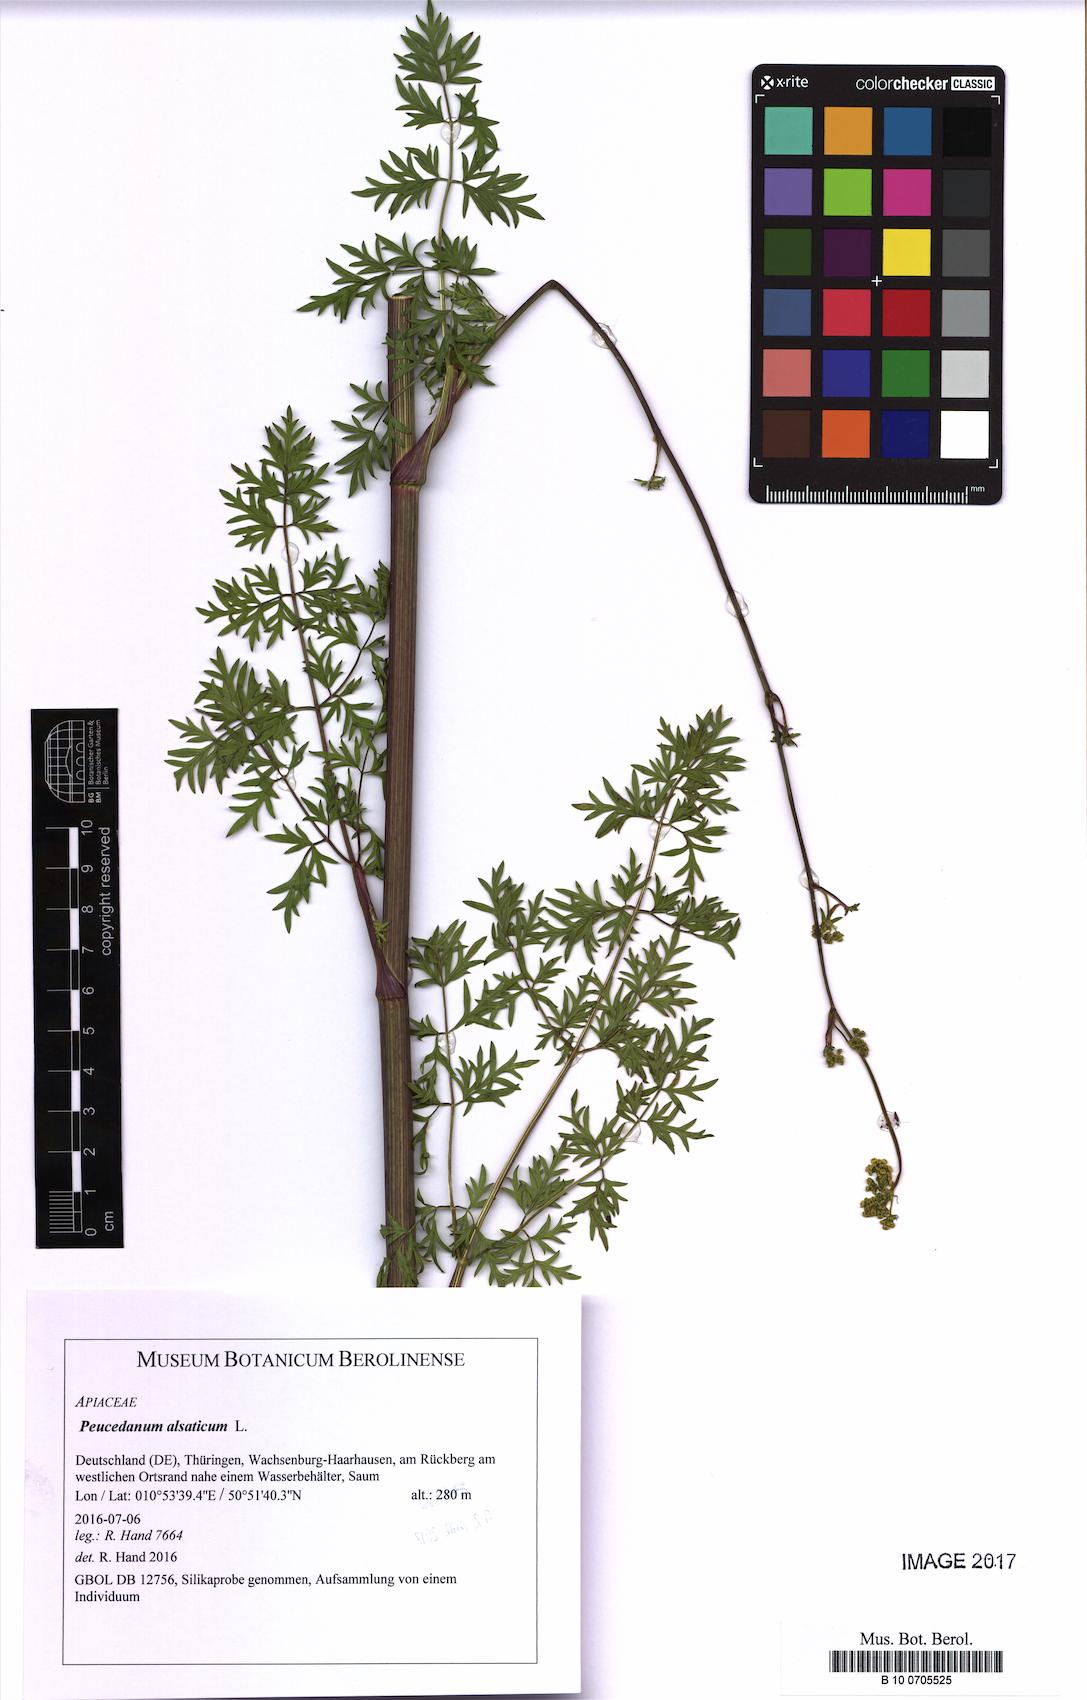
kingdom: Plantae
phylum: Tracheophyta
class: Magnoliopsida
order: Apiales
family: Apiaceae
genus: Xanthoselinum
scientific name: Xanthoselinum alsaticum
